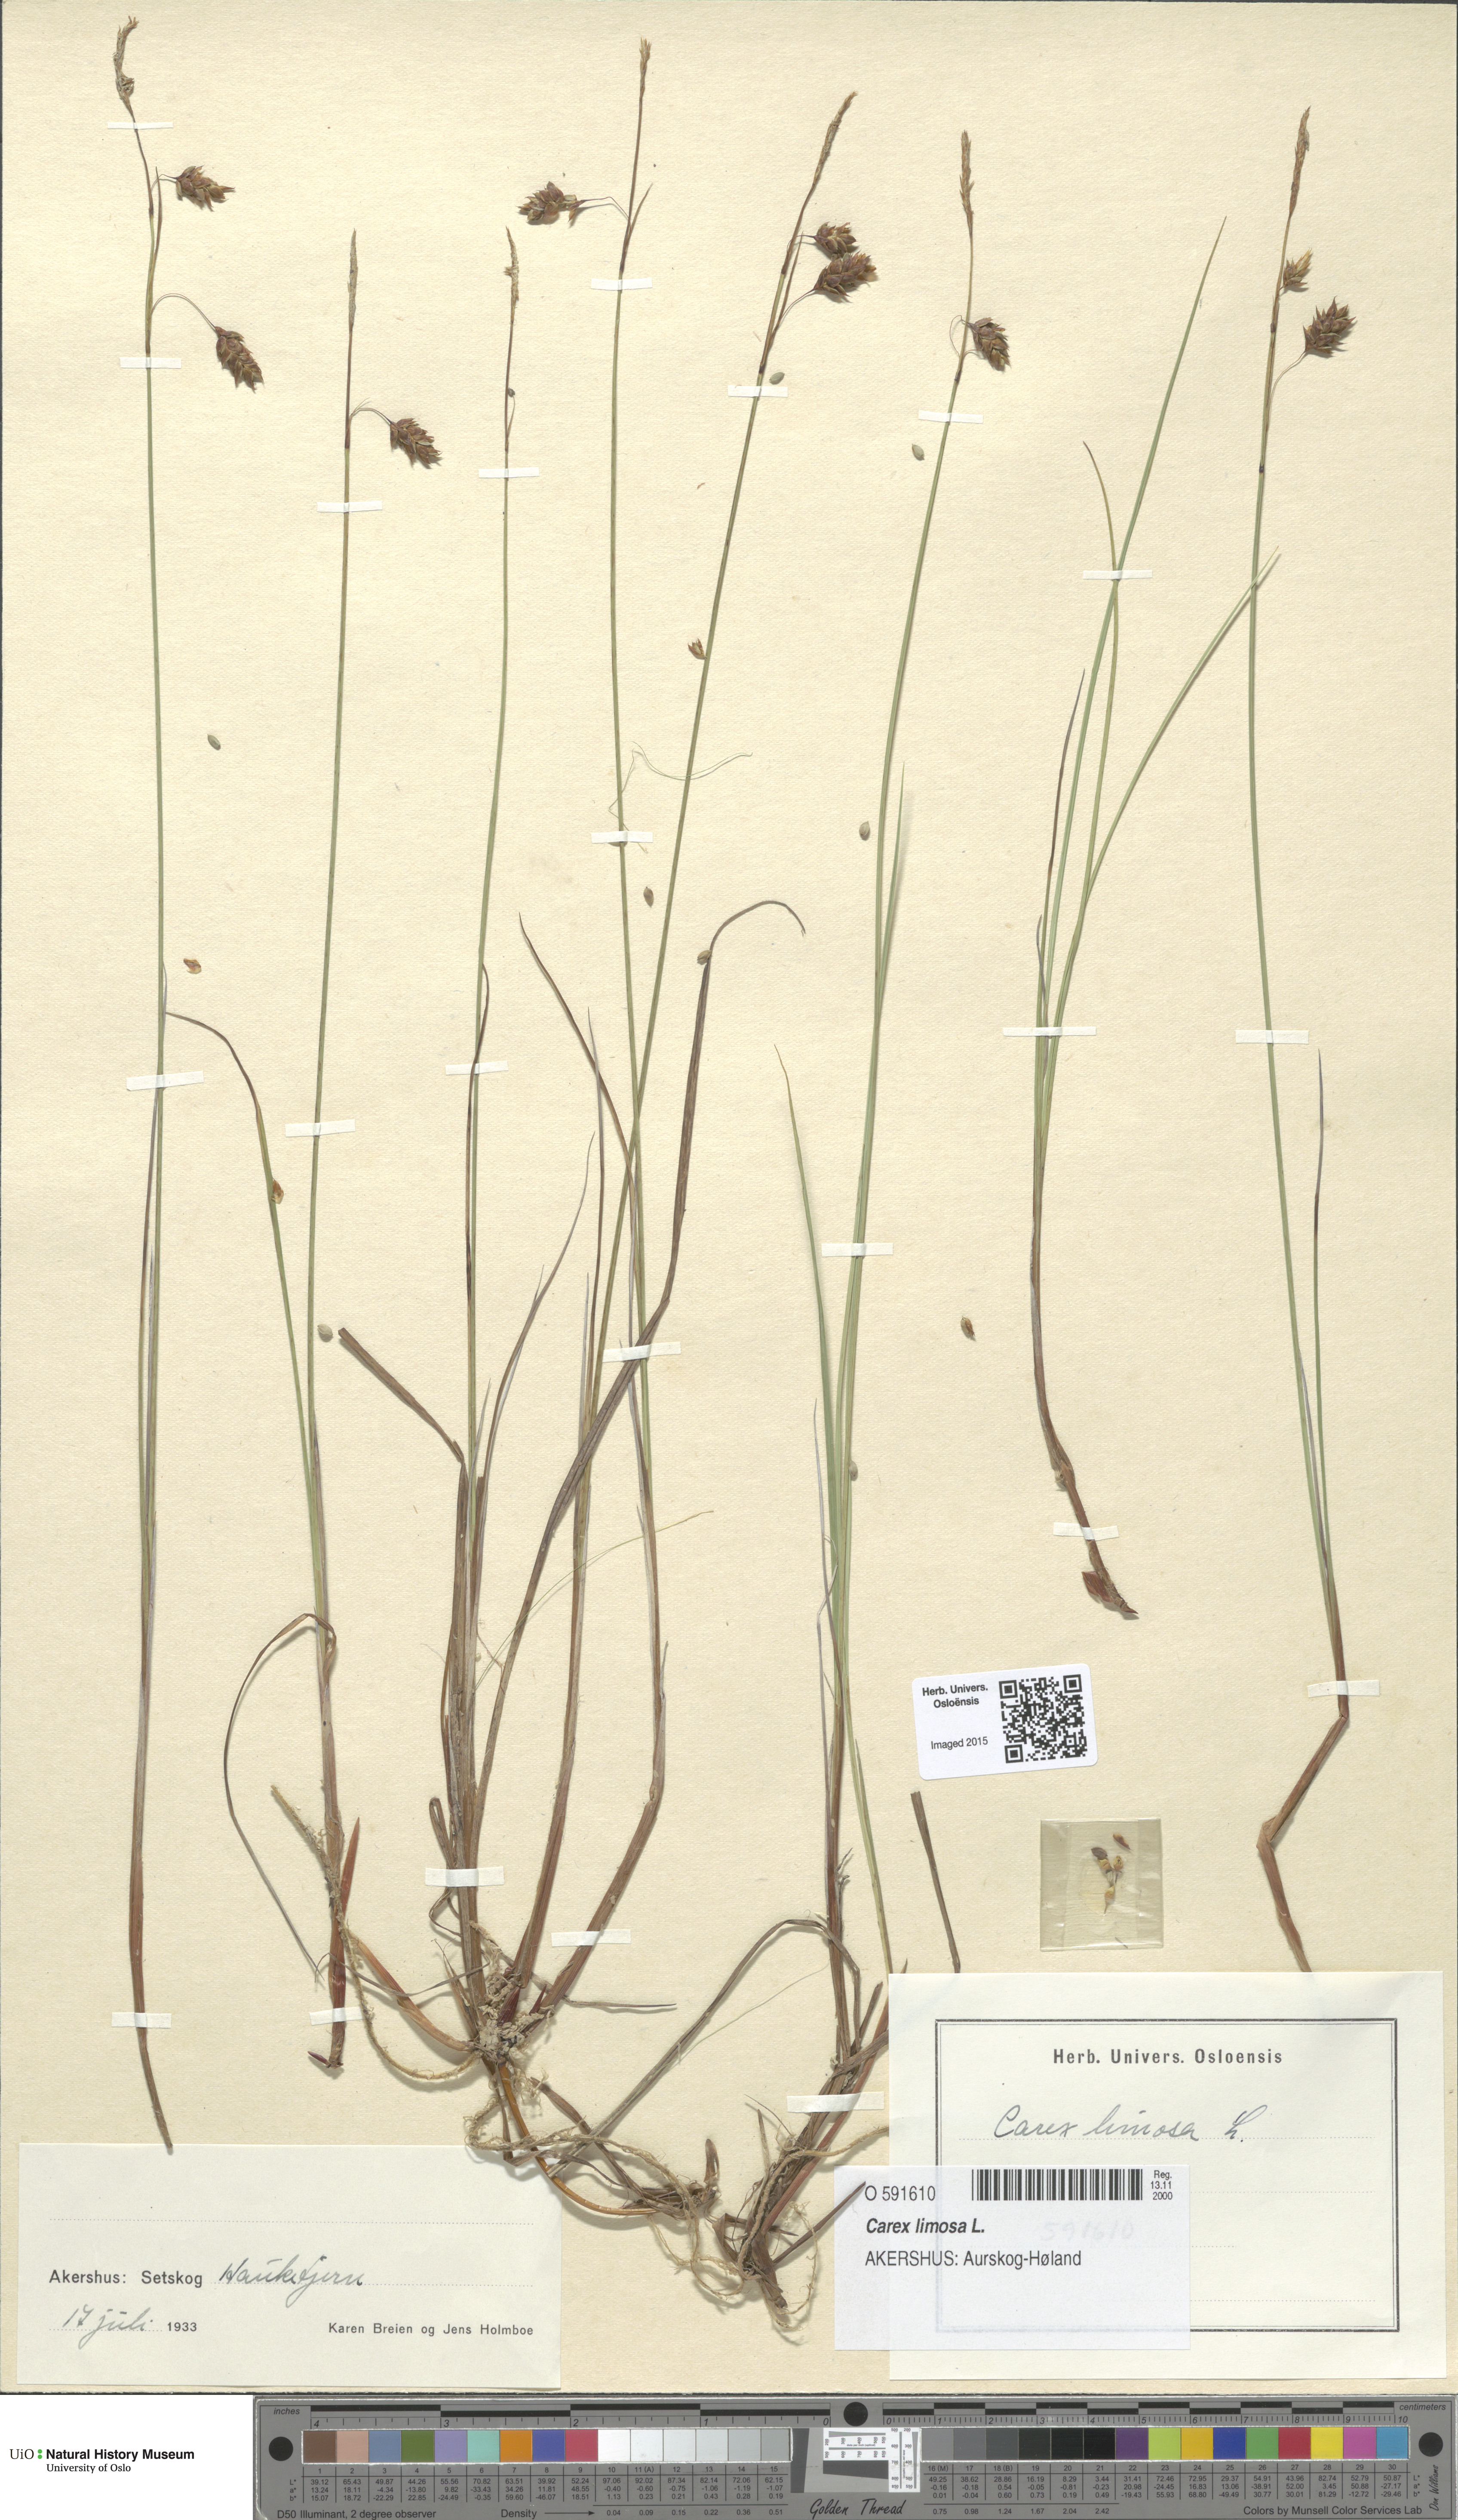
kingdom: Plantae
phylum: Tracheophyta
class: Liliopsida
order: Poales
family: Cyperaceae
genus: Carex
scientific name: Carex limosa
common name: Bog sedge
